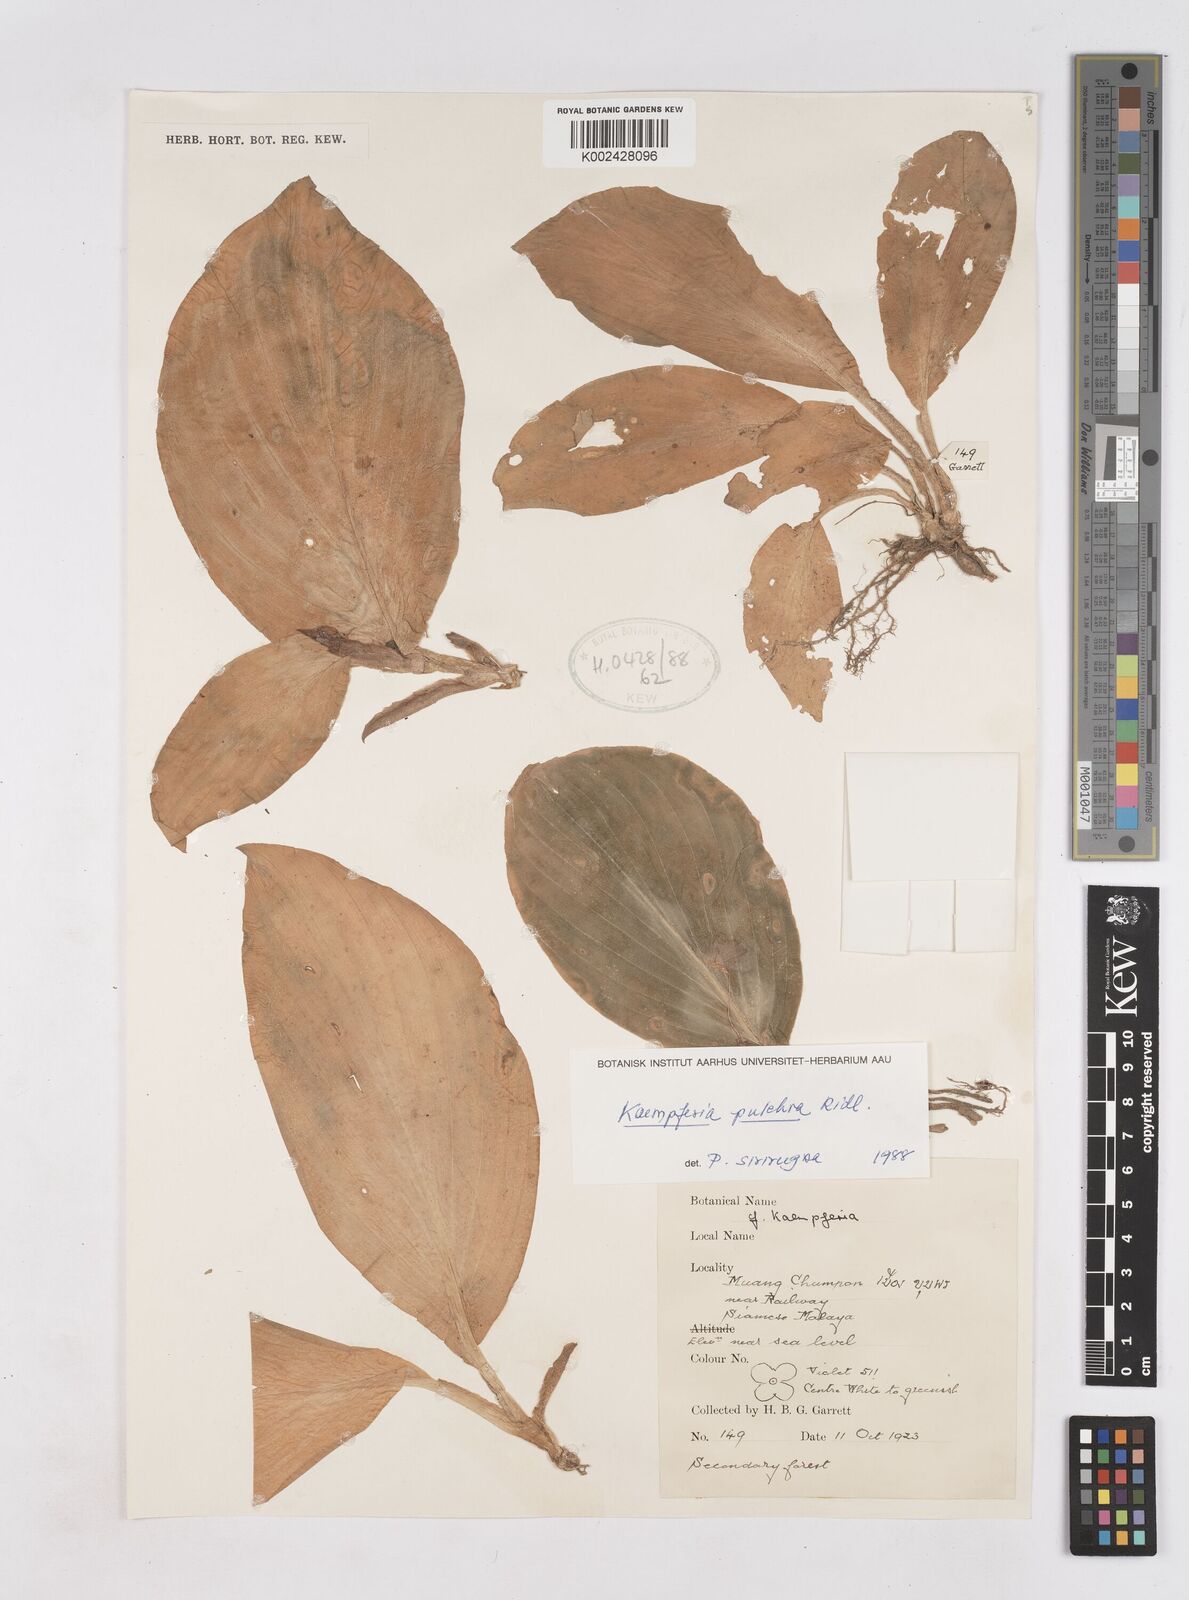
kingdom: Plantae
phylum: Tracheophyta
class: Liliopsida
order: Zingiberales
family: Zingiberaceae
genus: Kaempferia
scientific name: Kaempferia elegans
